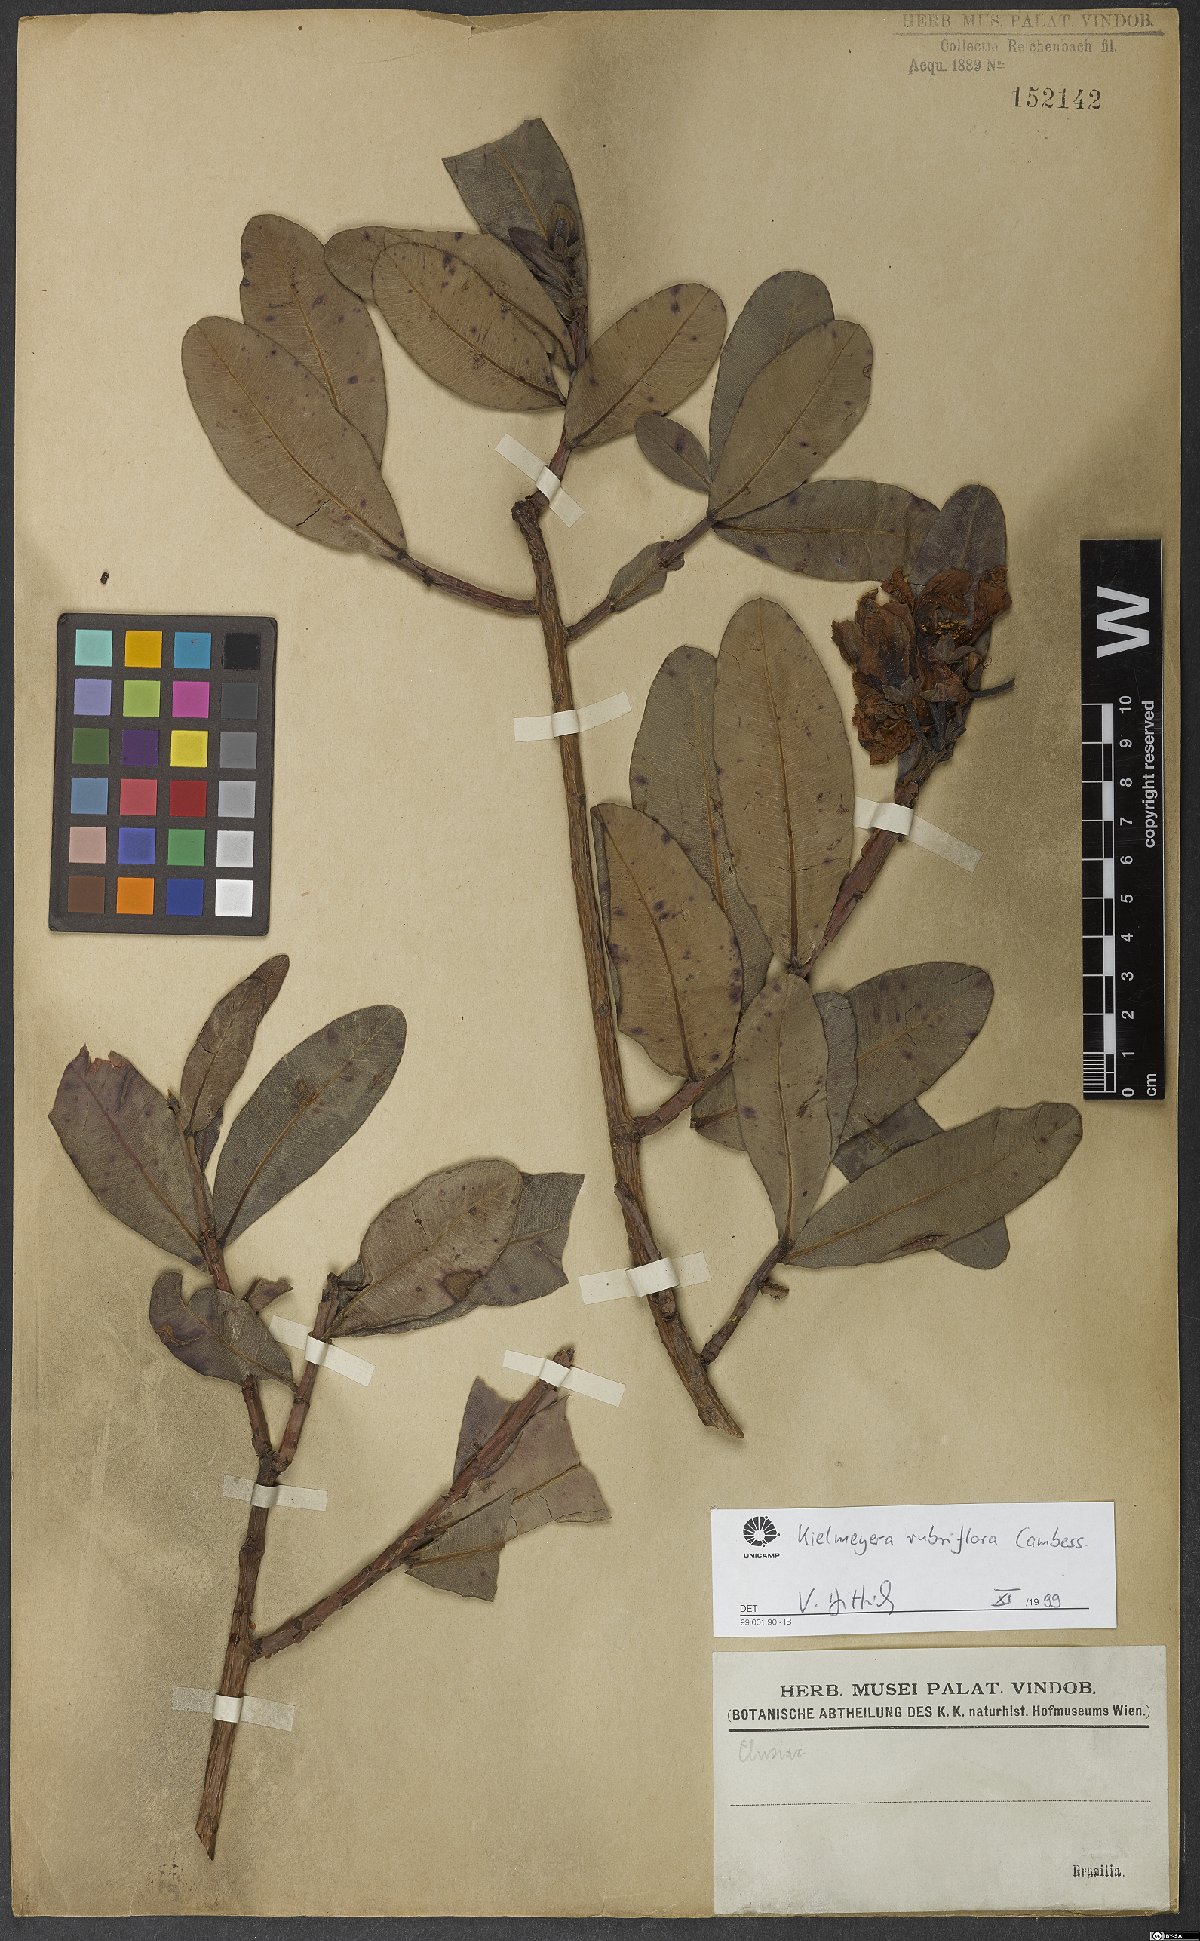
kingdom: Plantae
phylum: Tracheophyta
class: Magnoliopsida
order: Malpighiales
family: Calophyllaceae
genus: Kielmeyera
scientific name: Kielmeyera rubriflora
